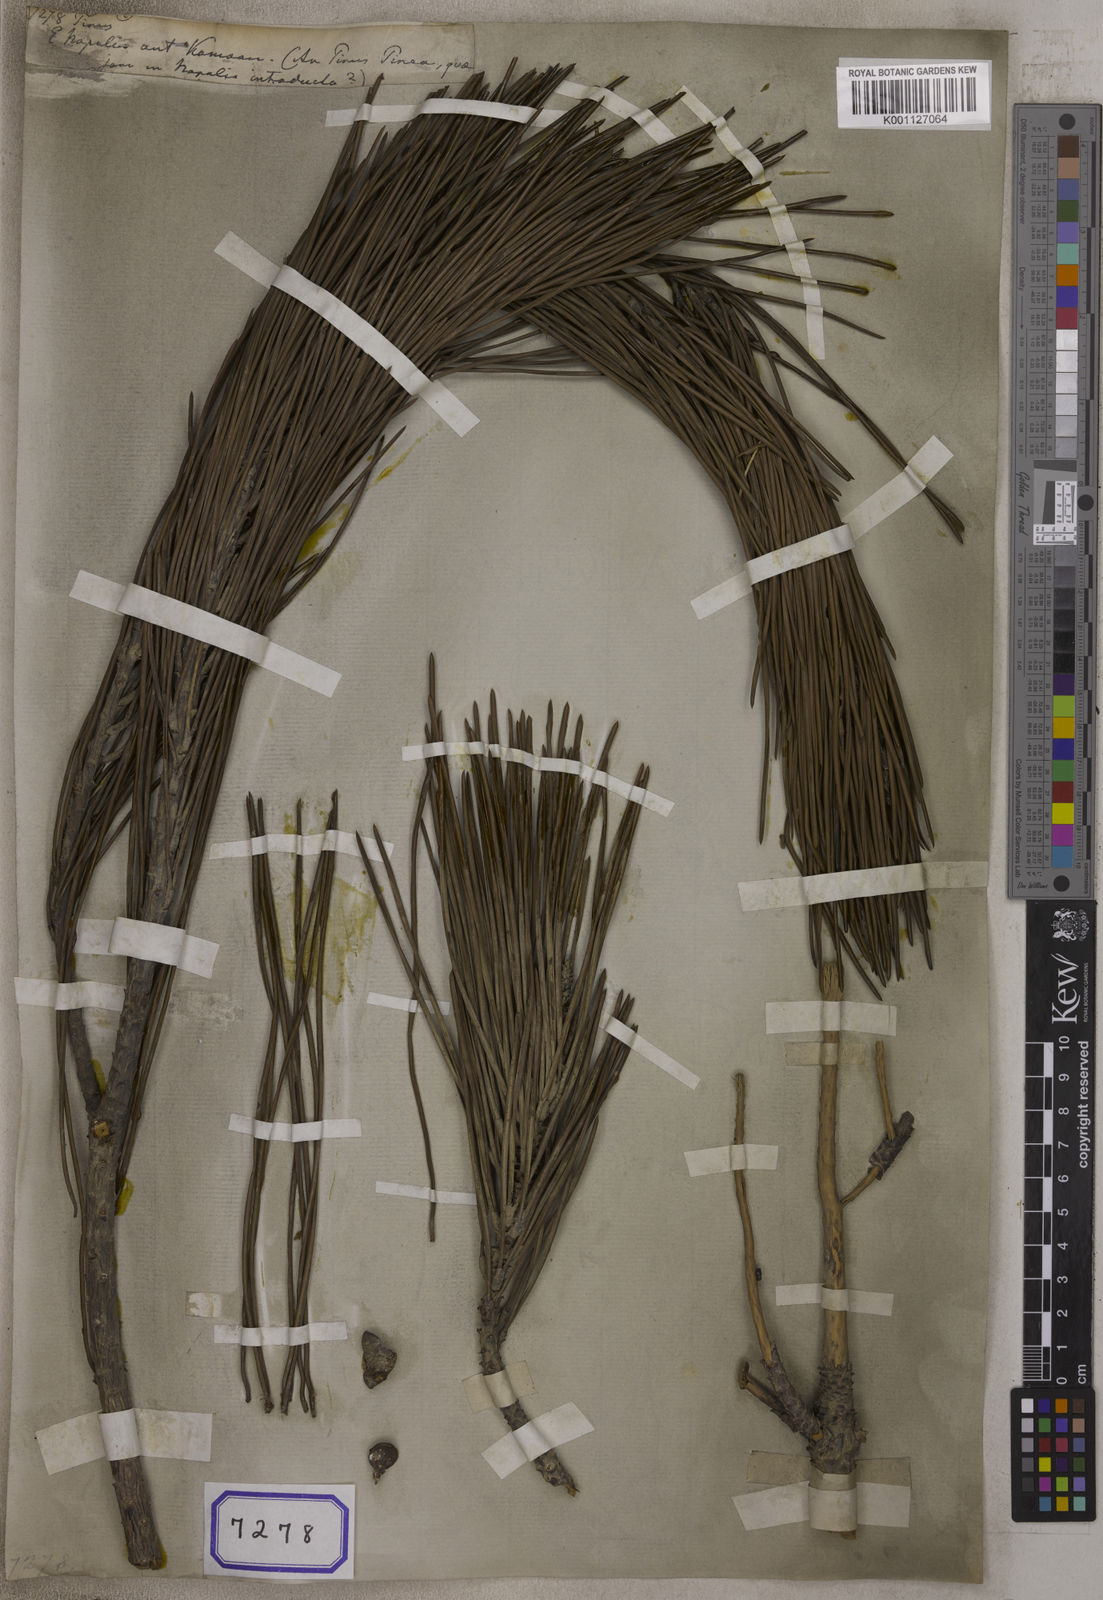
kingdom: Plantae
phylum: Tracheophyta
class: Pinopsida
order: Pinales
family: Pinaceae
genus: Pinus
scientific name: Pinus
